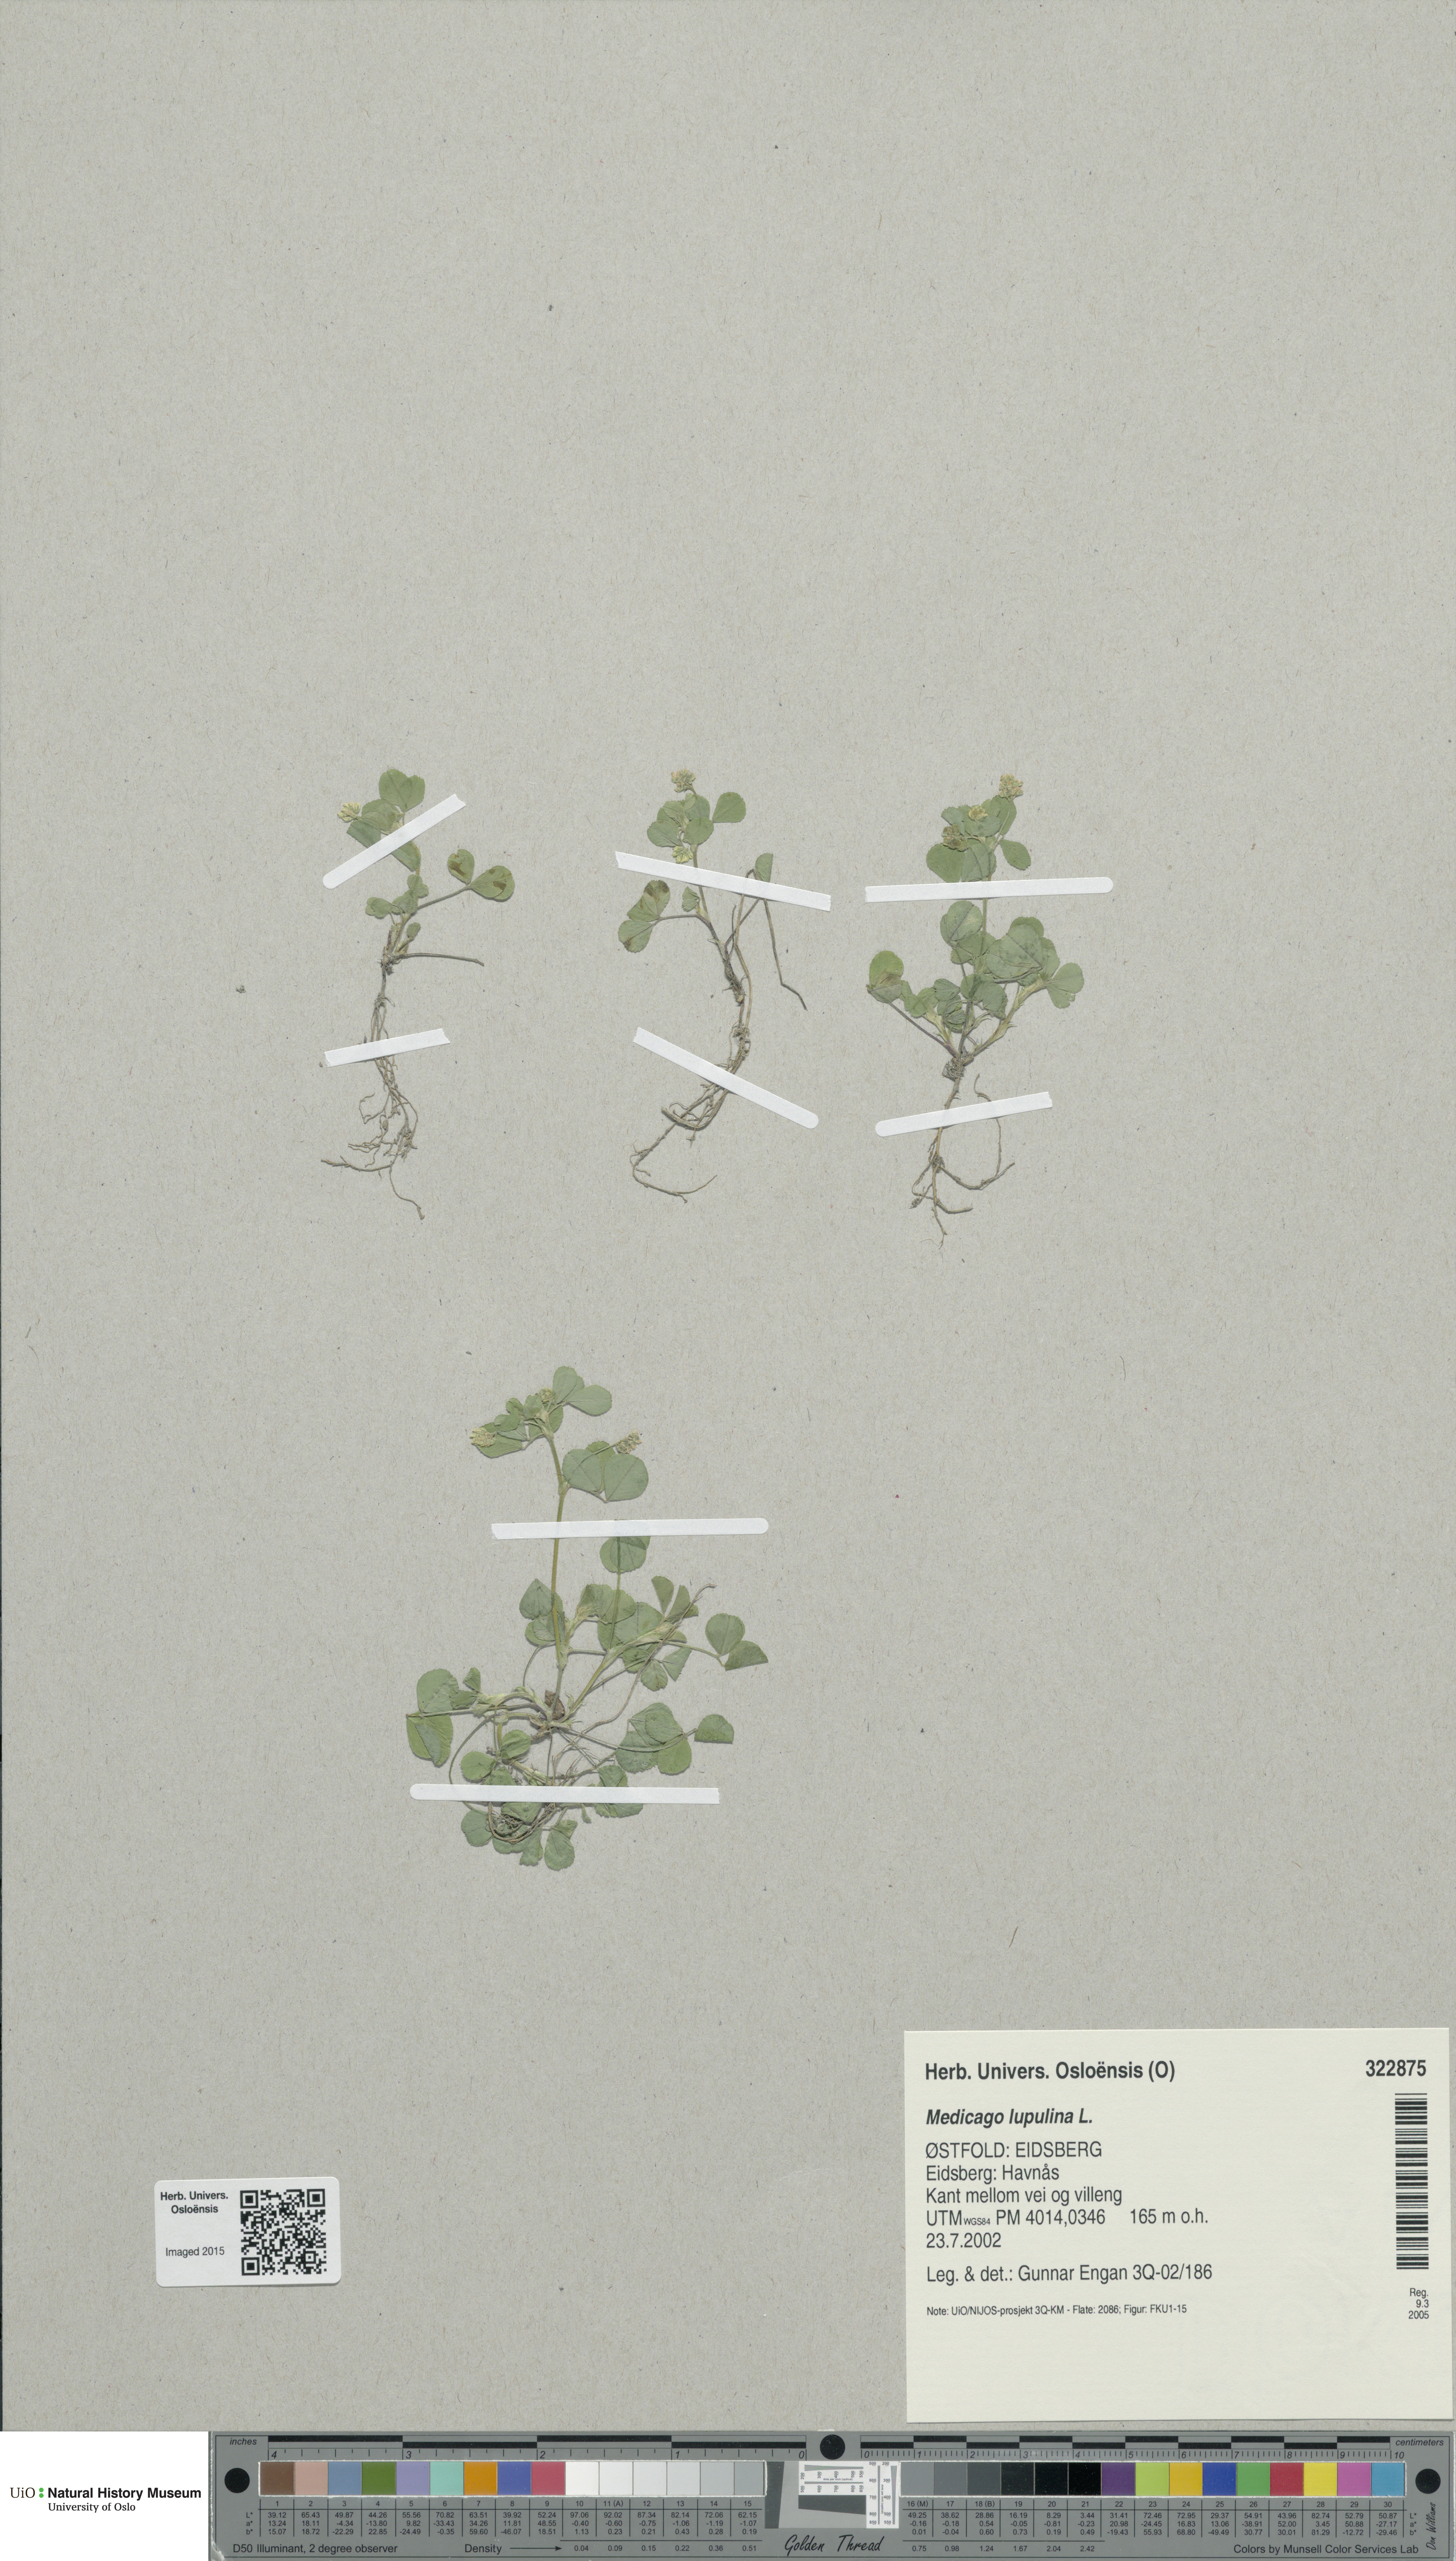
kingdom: Plantae
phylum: Tracheophyta
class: Magnoliopsida
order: Fabales
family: Fabaceae
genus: Medicago
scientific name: Medicago lupulina
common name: Black medick
